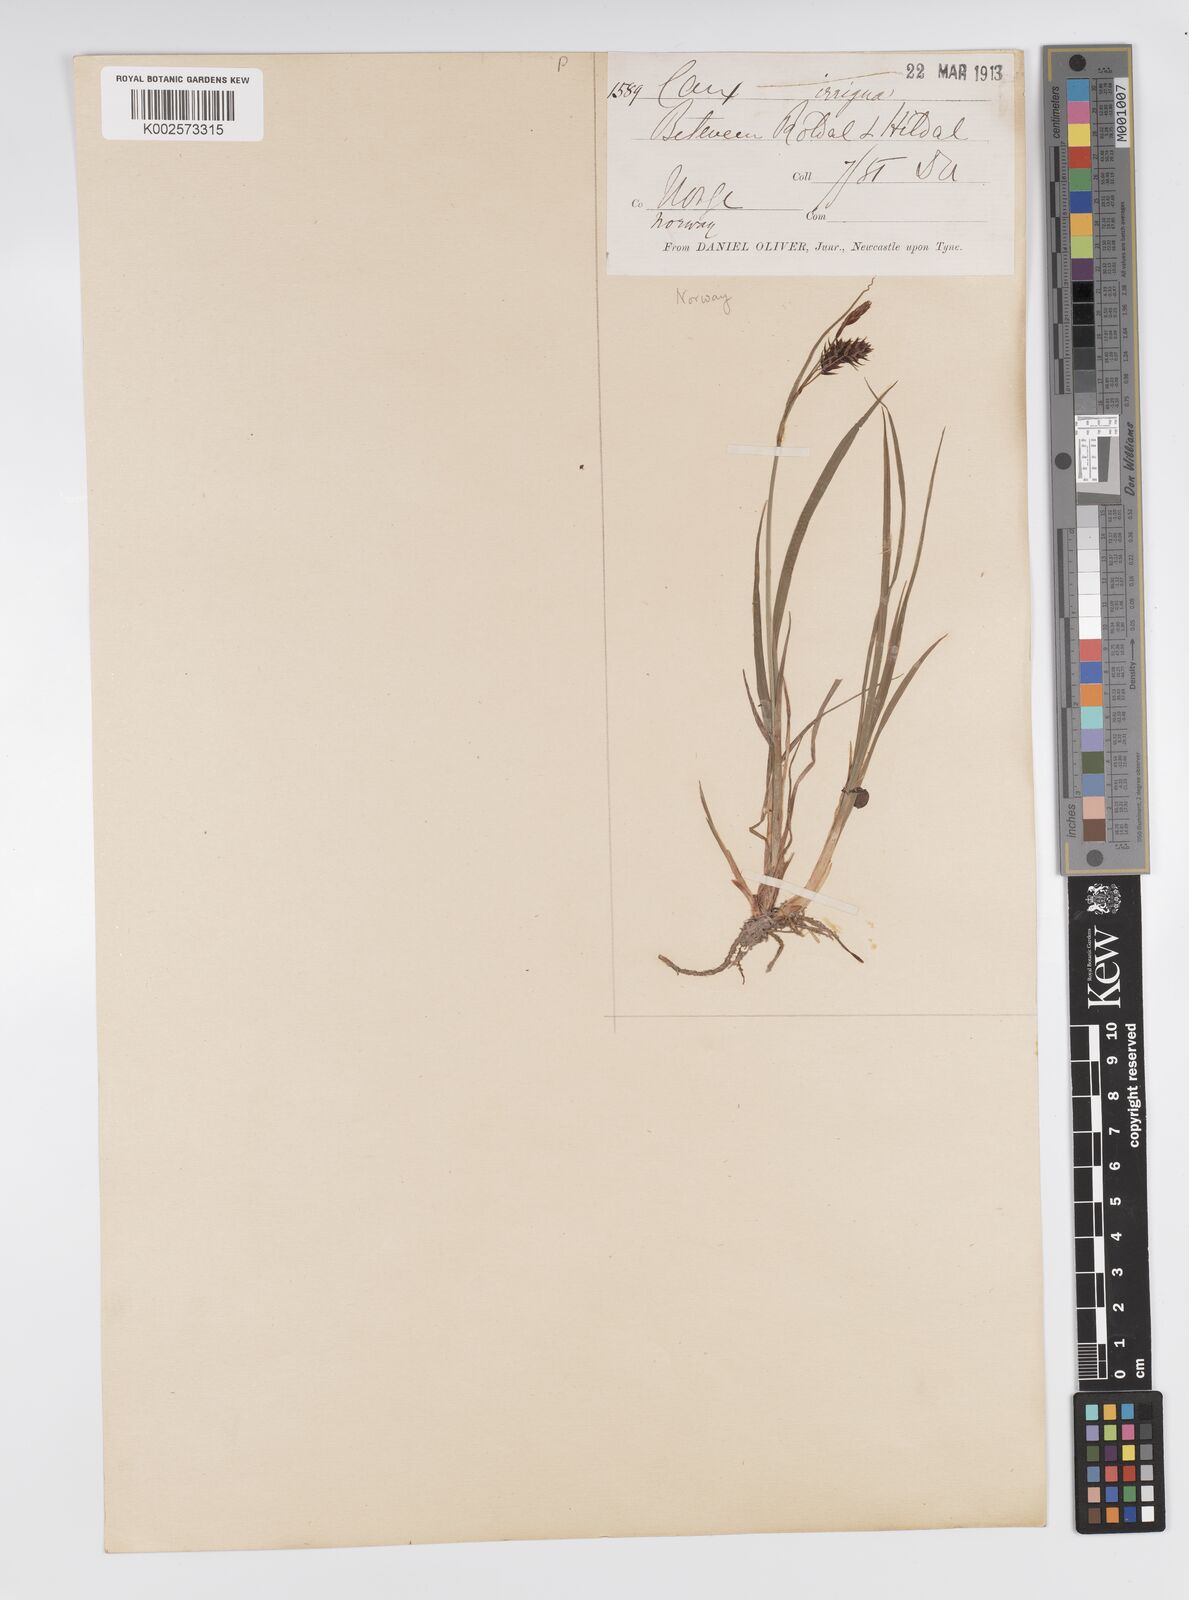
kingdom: Plantae
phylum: Tracheophyta
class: Liliopsida
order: Poales
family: Cyperaceae
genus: Carex
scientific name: Carex magellanica
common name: Bog sedge
